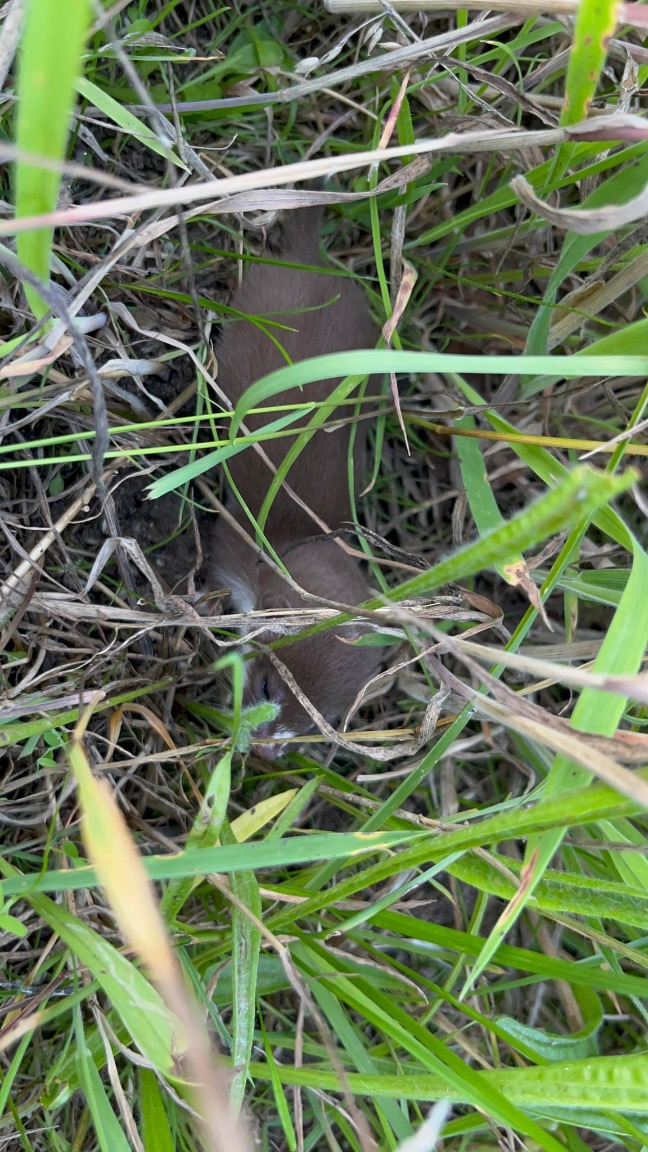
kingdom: Animalia
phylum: Chordata
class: Mammalia
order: Carnivora
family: Mustelidae
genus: Mustela
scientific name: Mustela nivalis
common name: Brud
